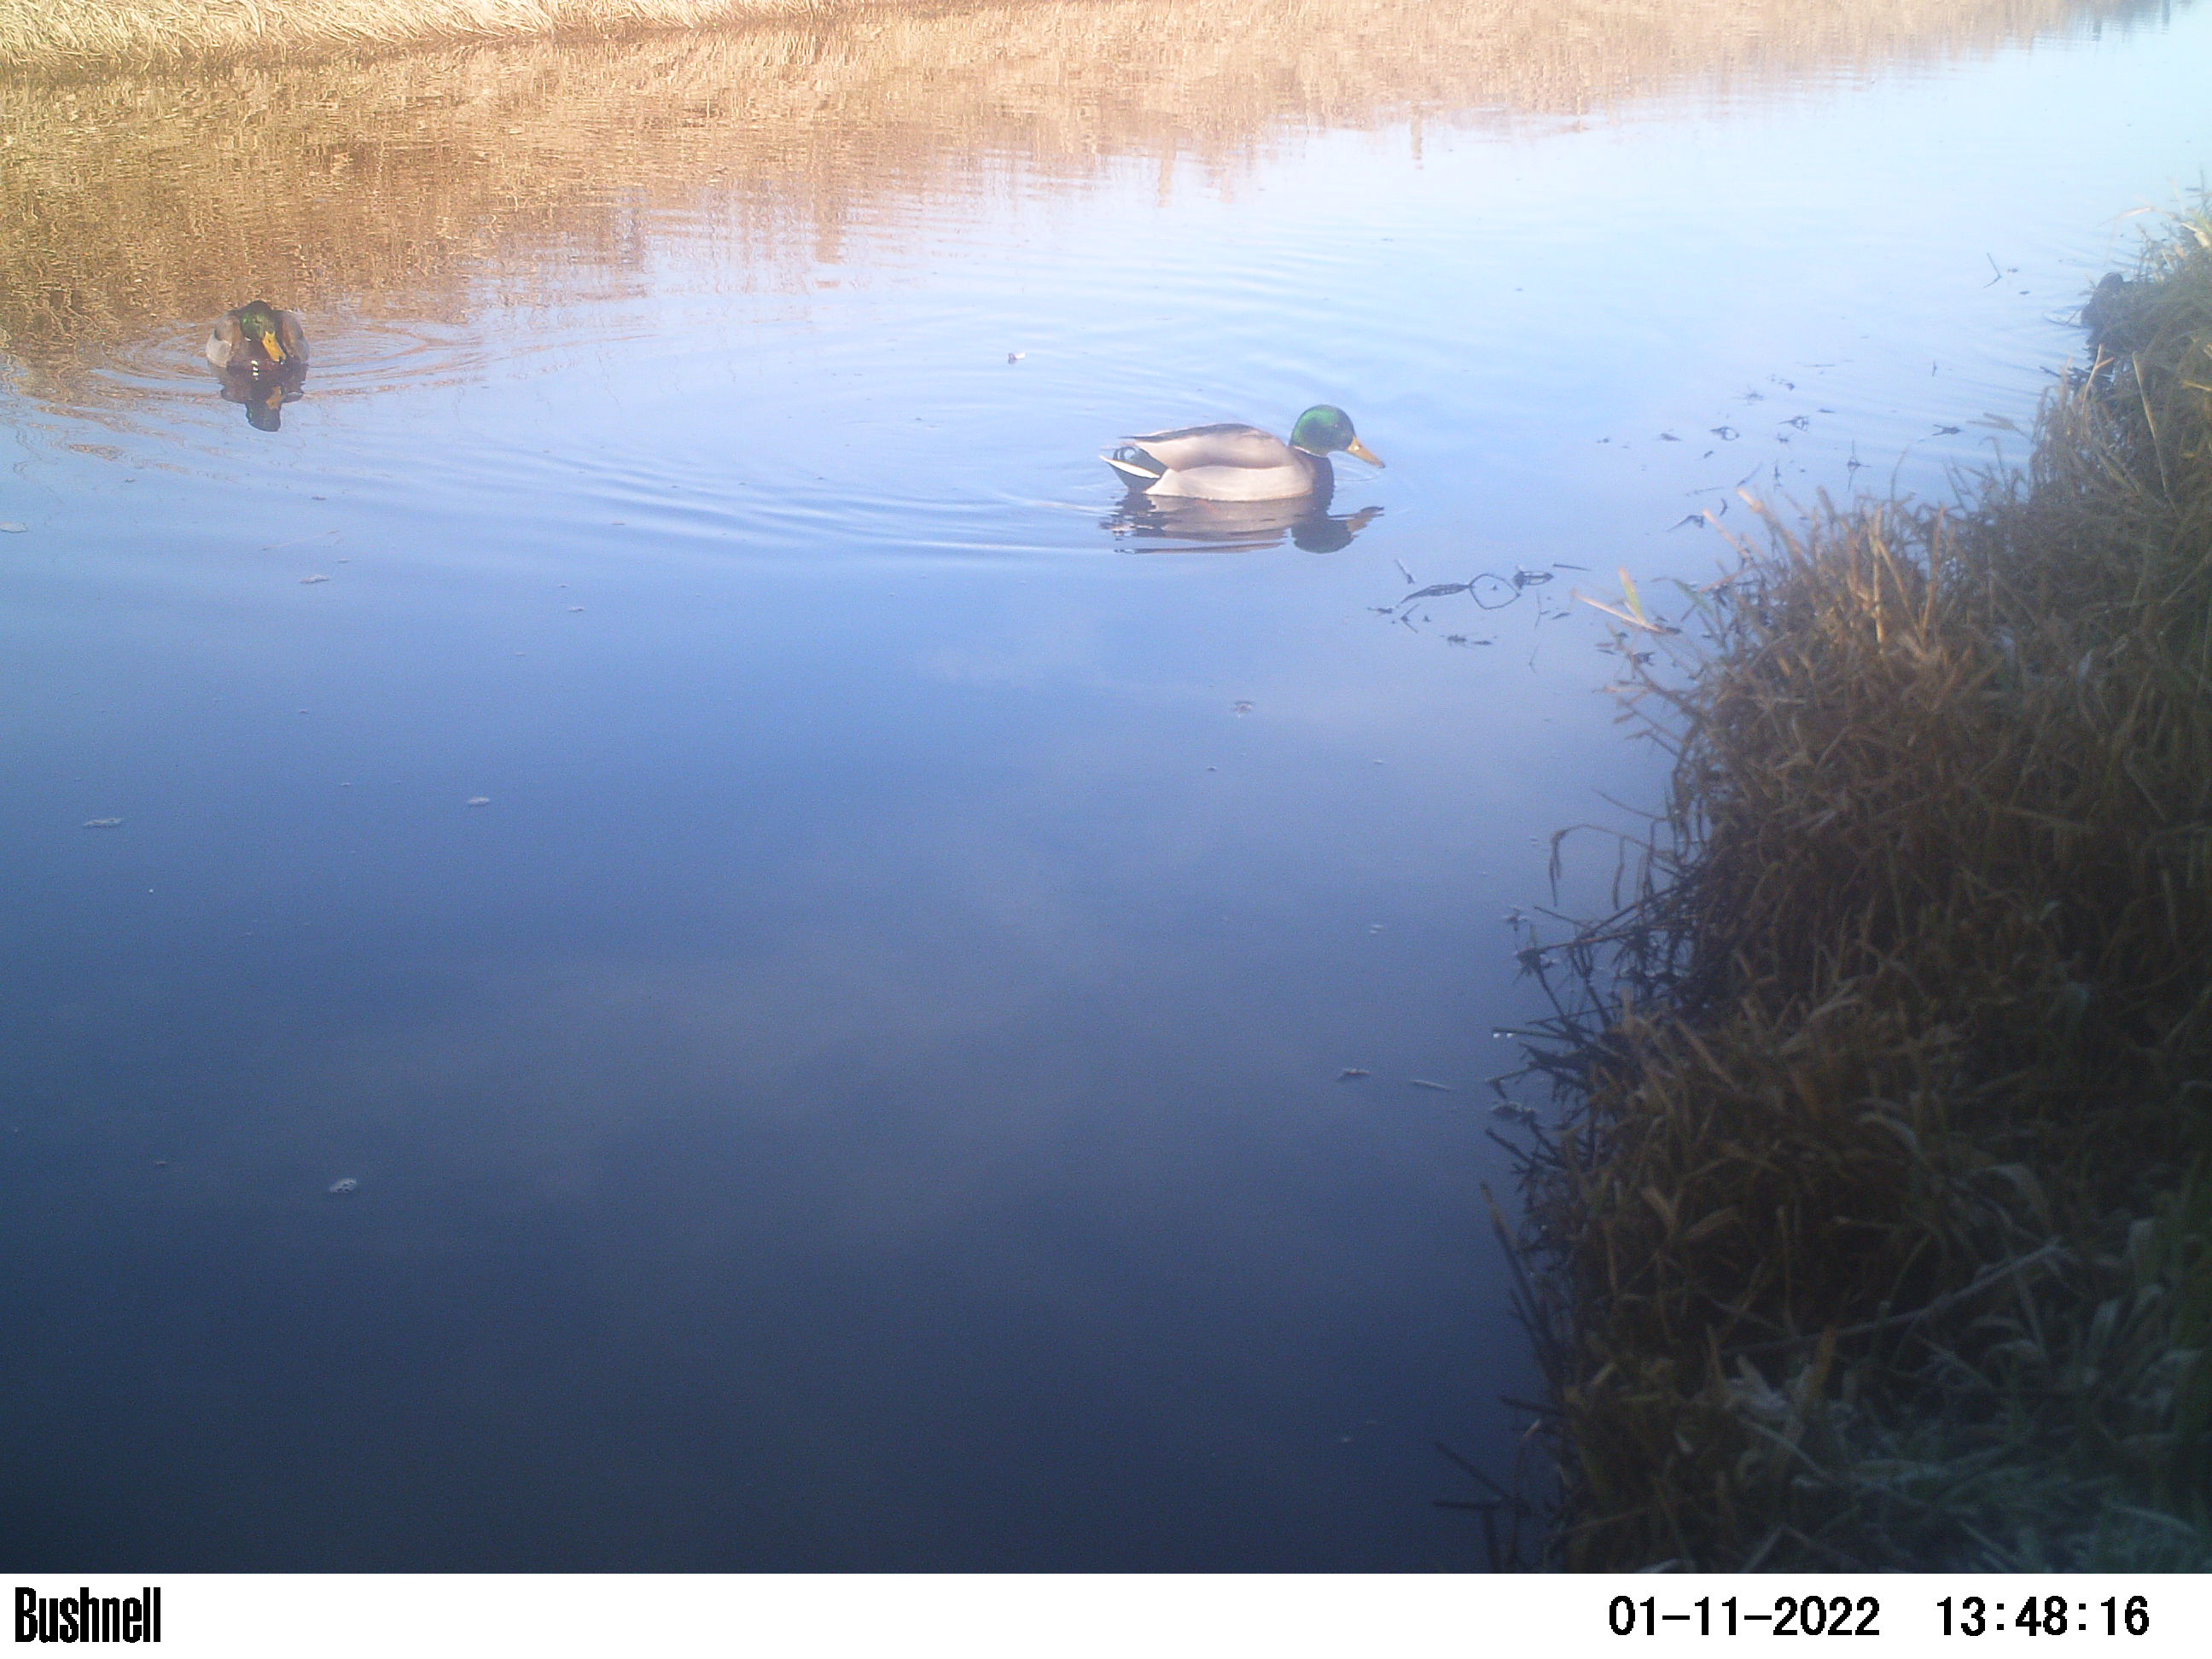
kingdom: Animalia
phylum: Chordata
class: Aves
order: Anseriformes
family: Anatidae
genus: Anas
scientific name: Anas
